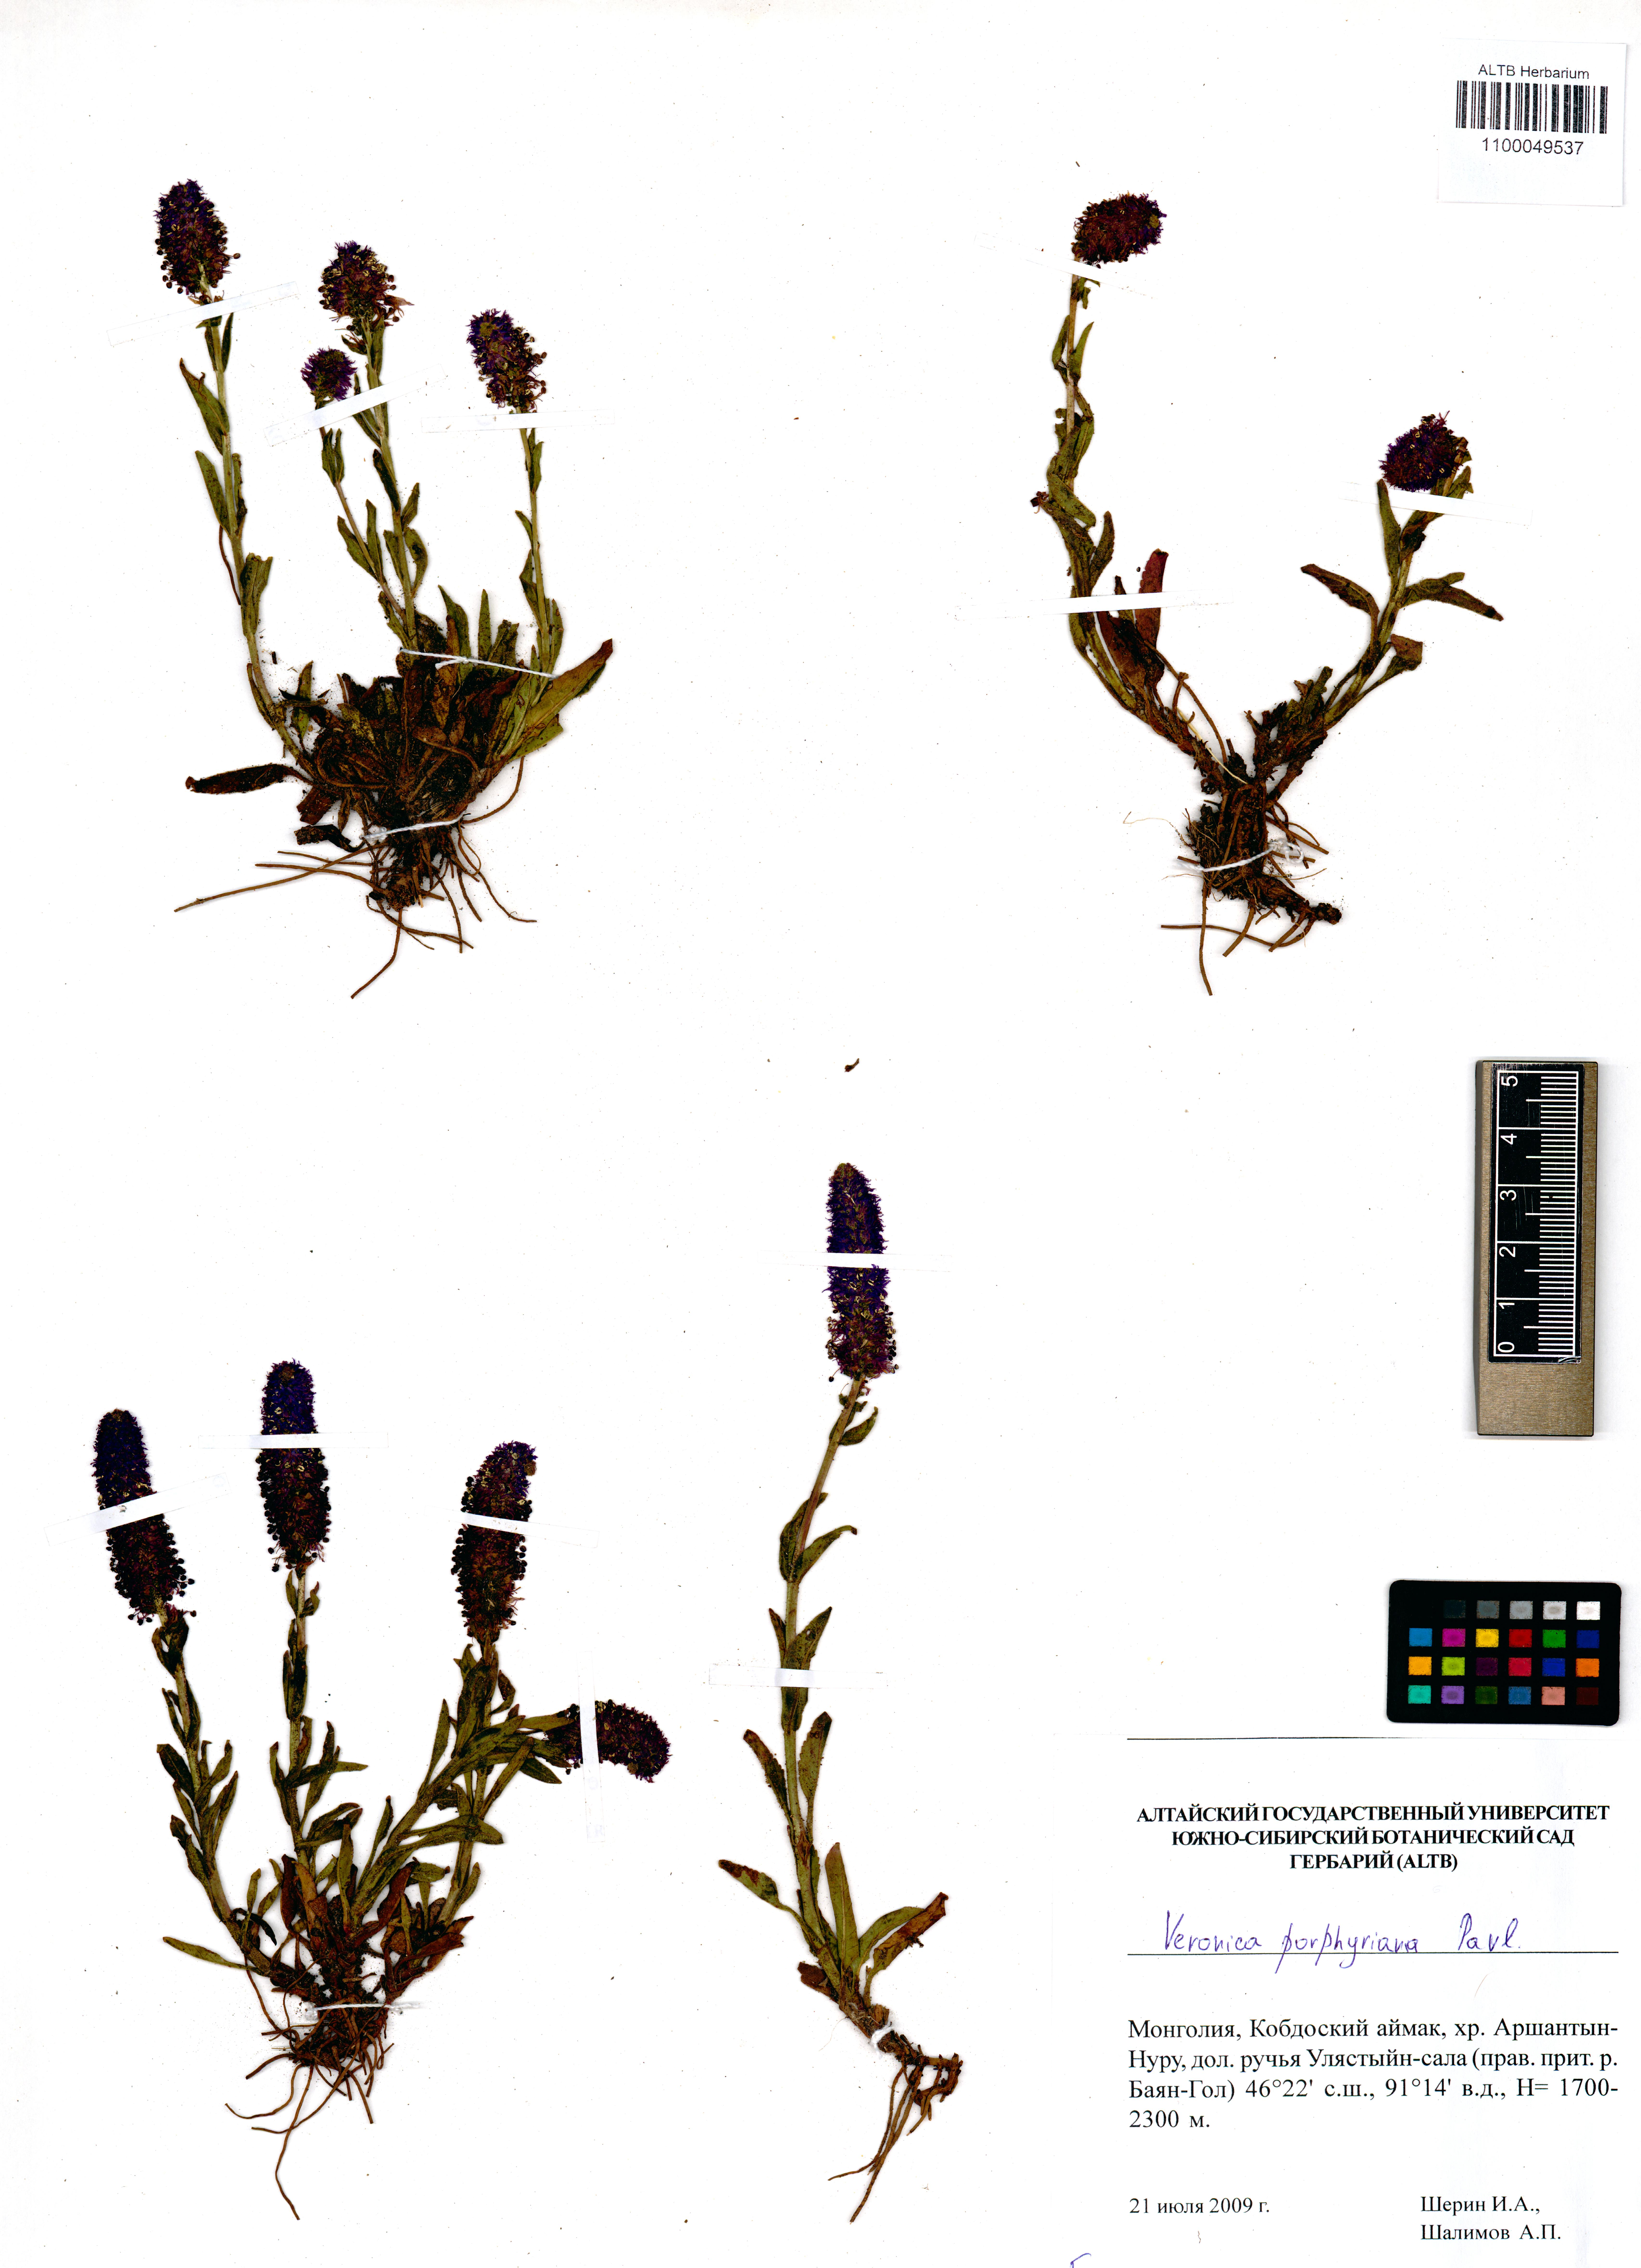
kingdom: Plantae
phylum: Tracheophyta
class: Magnoliopsida
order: Lamiales
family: Plantaginaceae
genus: Veronica
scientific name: Veronica porphyriana
